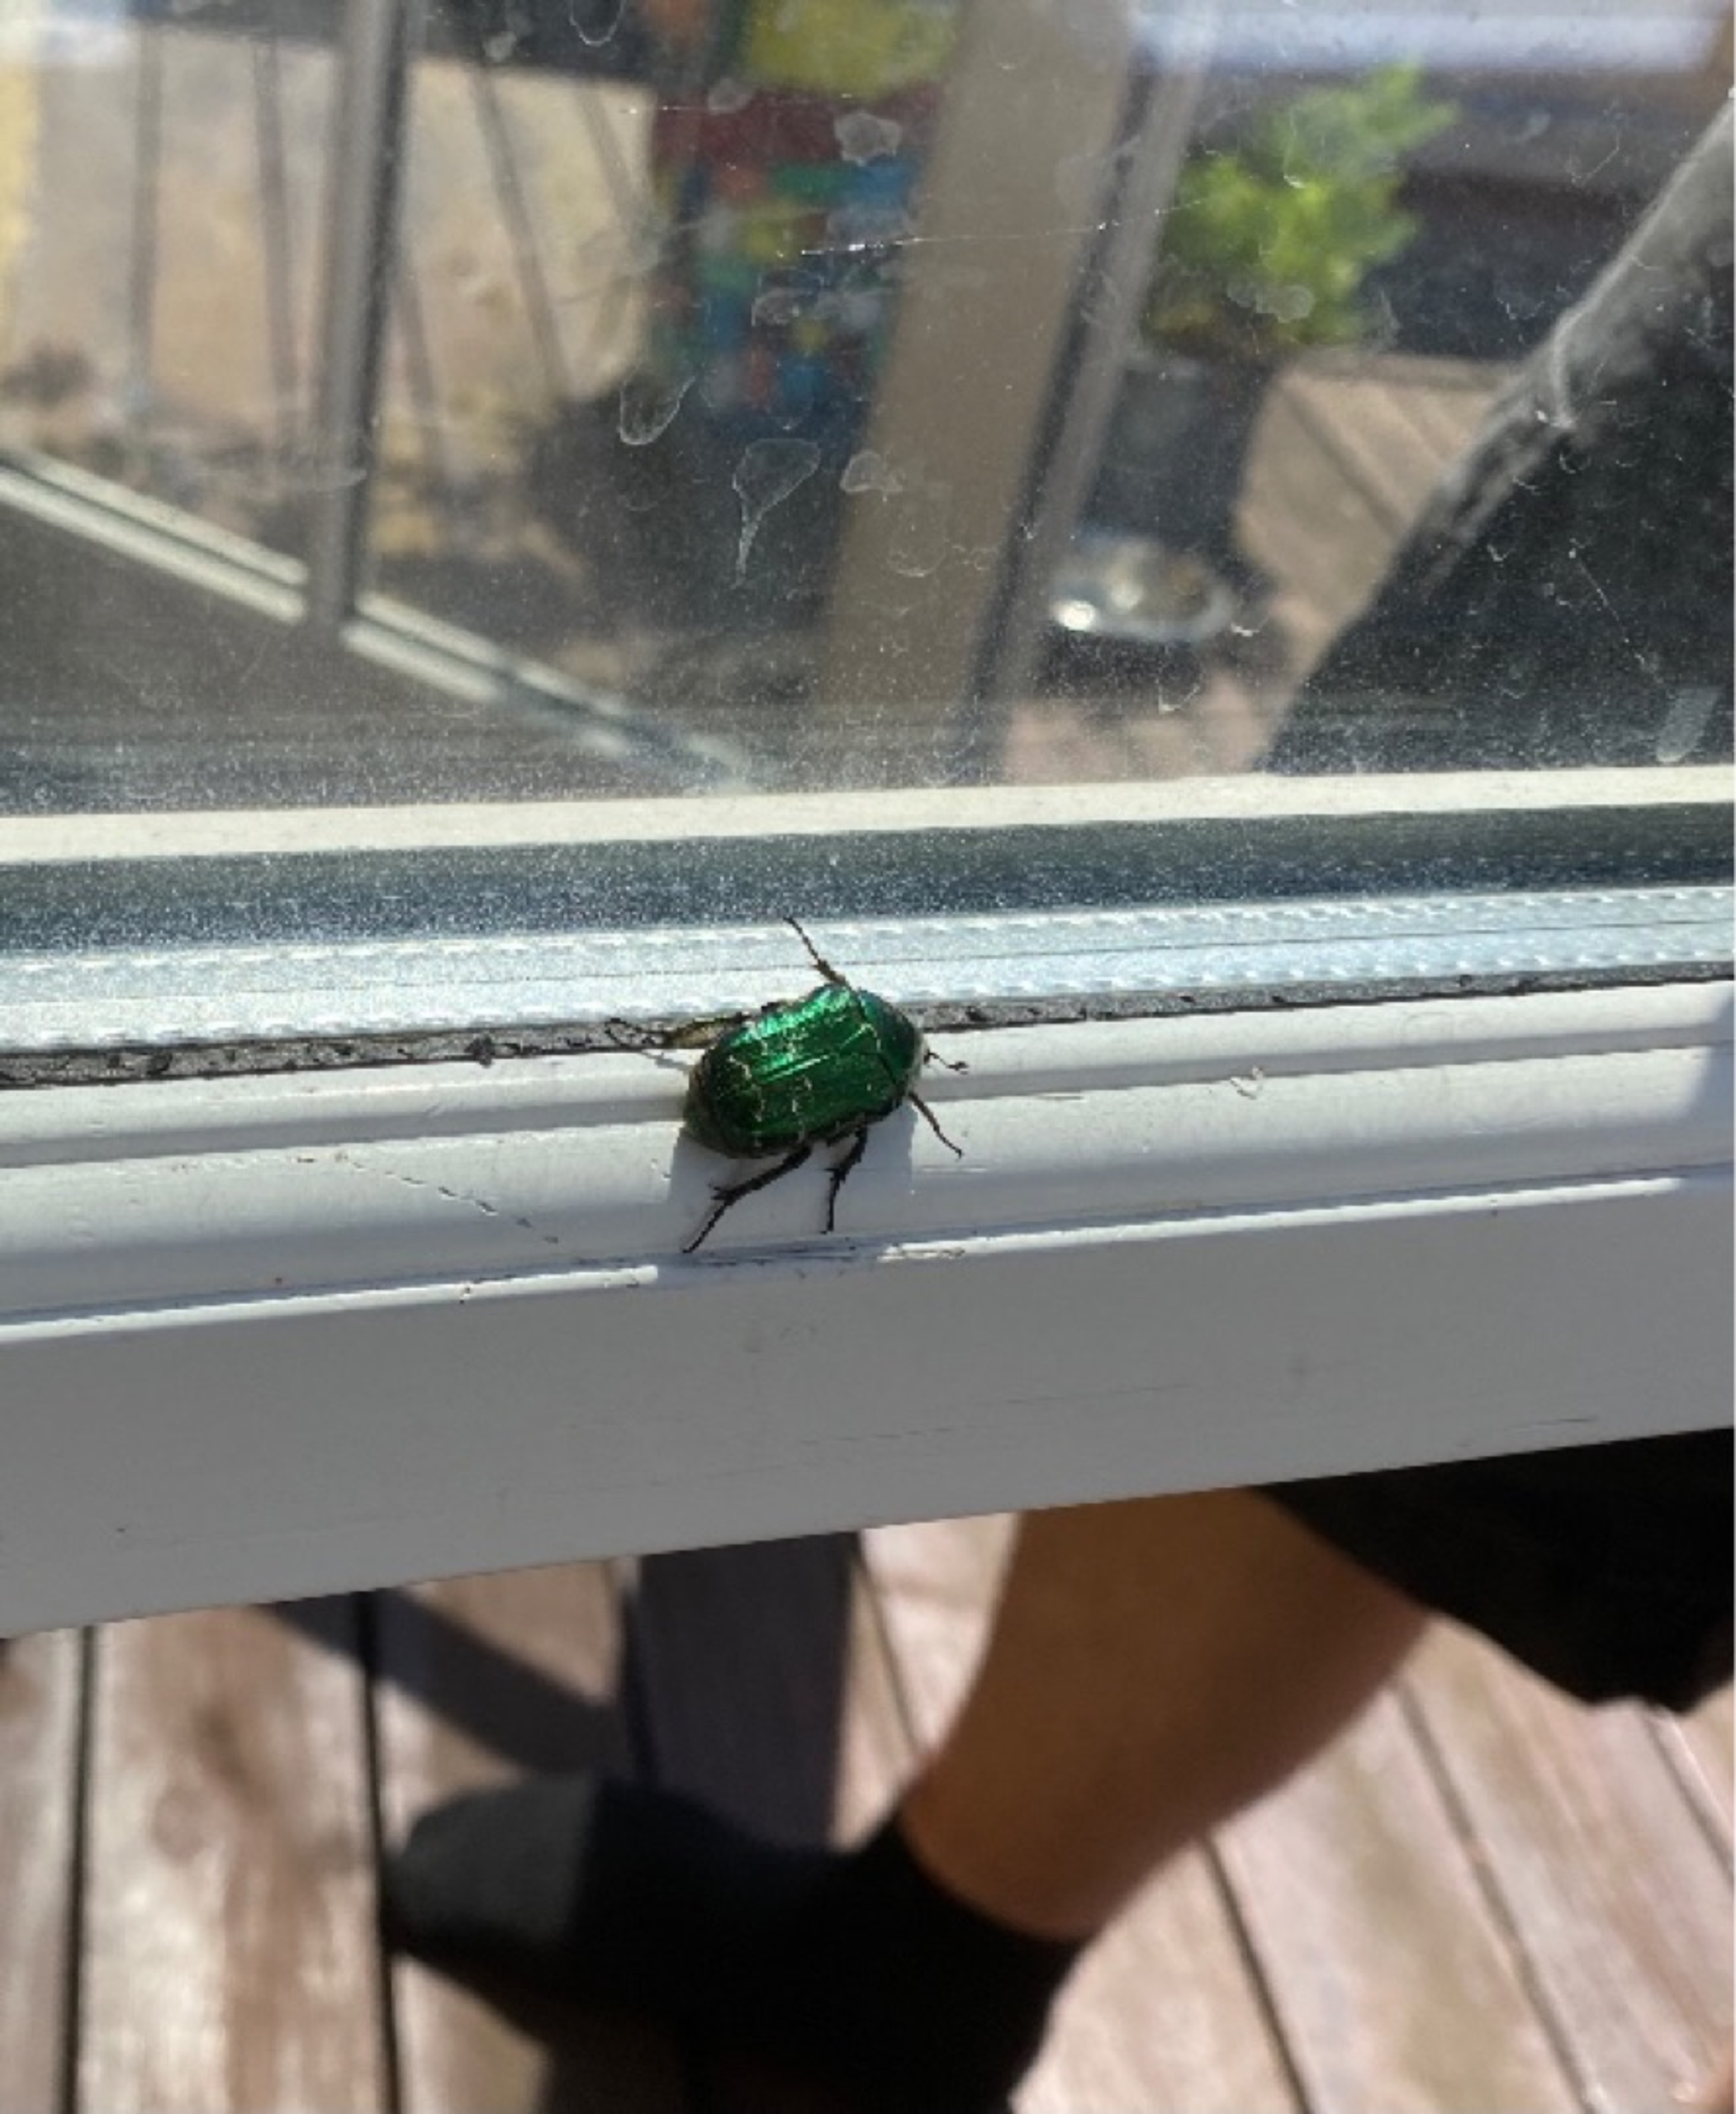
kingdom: Animalia
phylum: Arthropoda
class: Insecta
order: Coleoptera
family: Scarabaeidae
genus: Cetonia
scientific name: Cetonia aurata
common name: Grøn guldbasse
